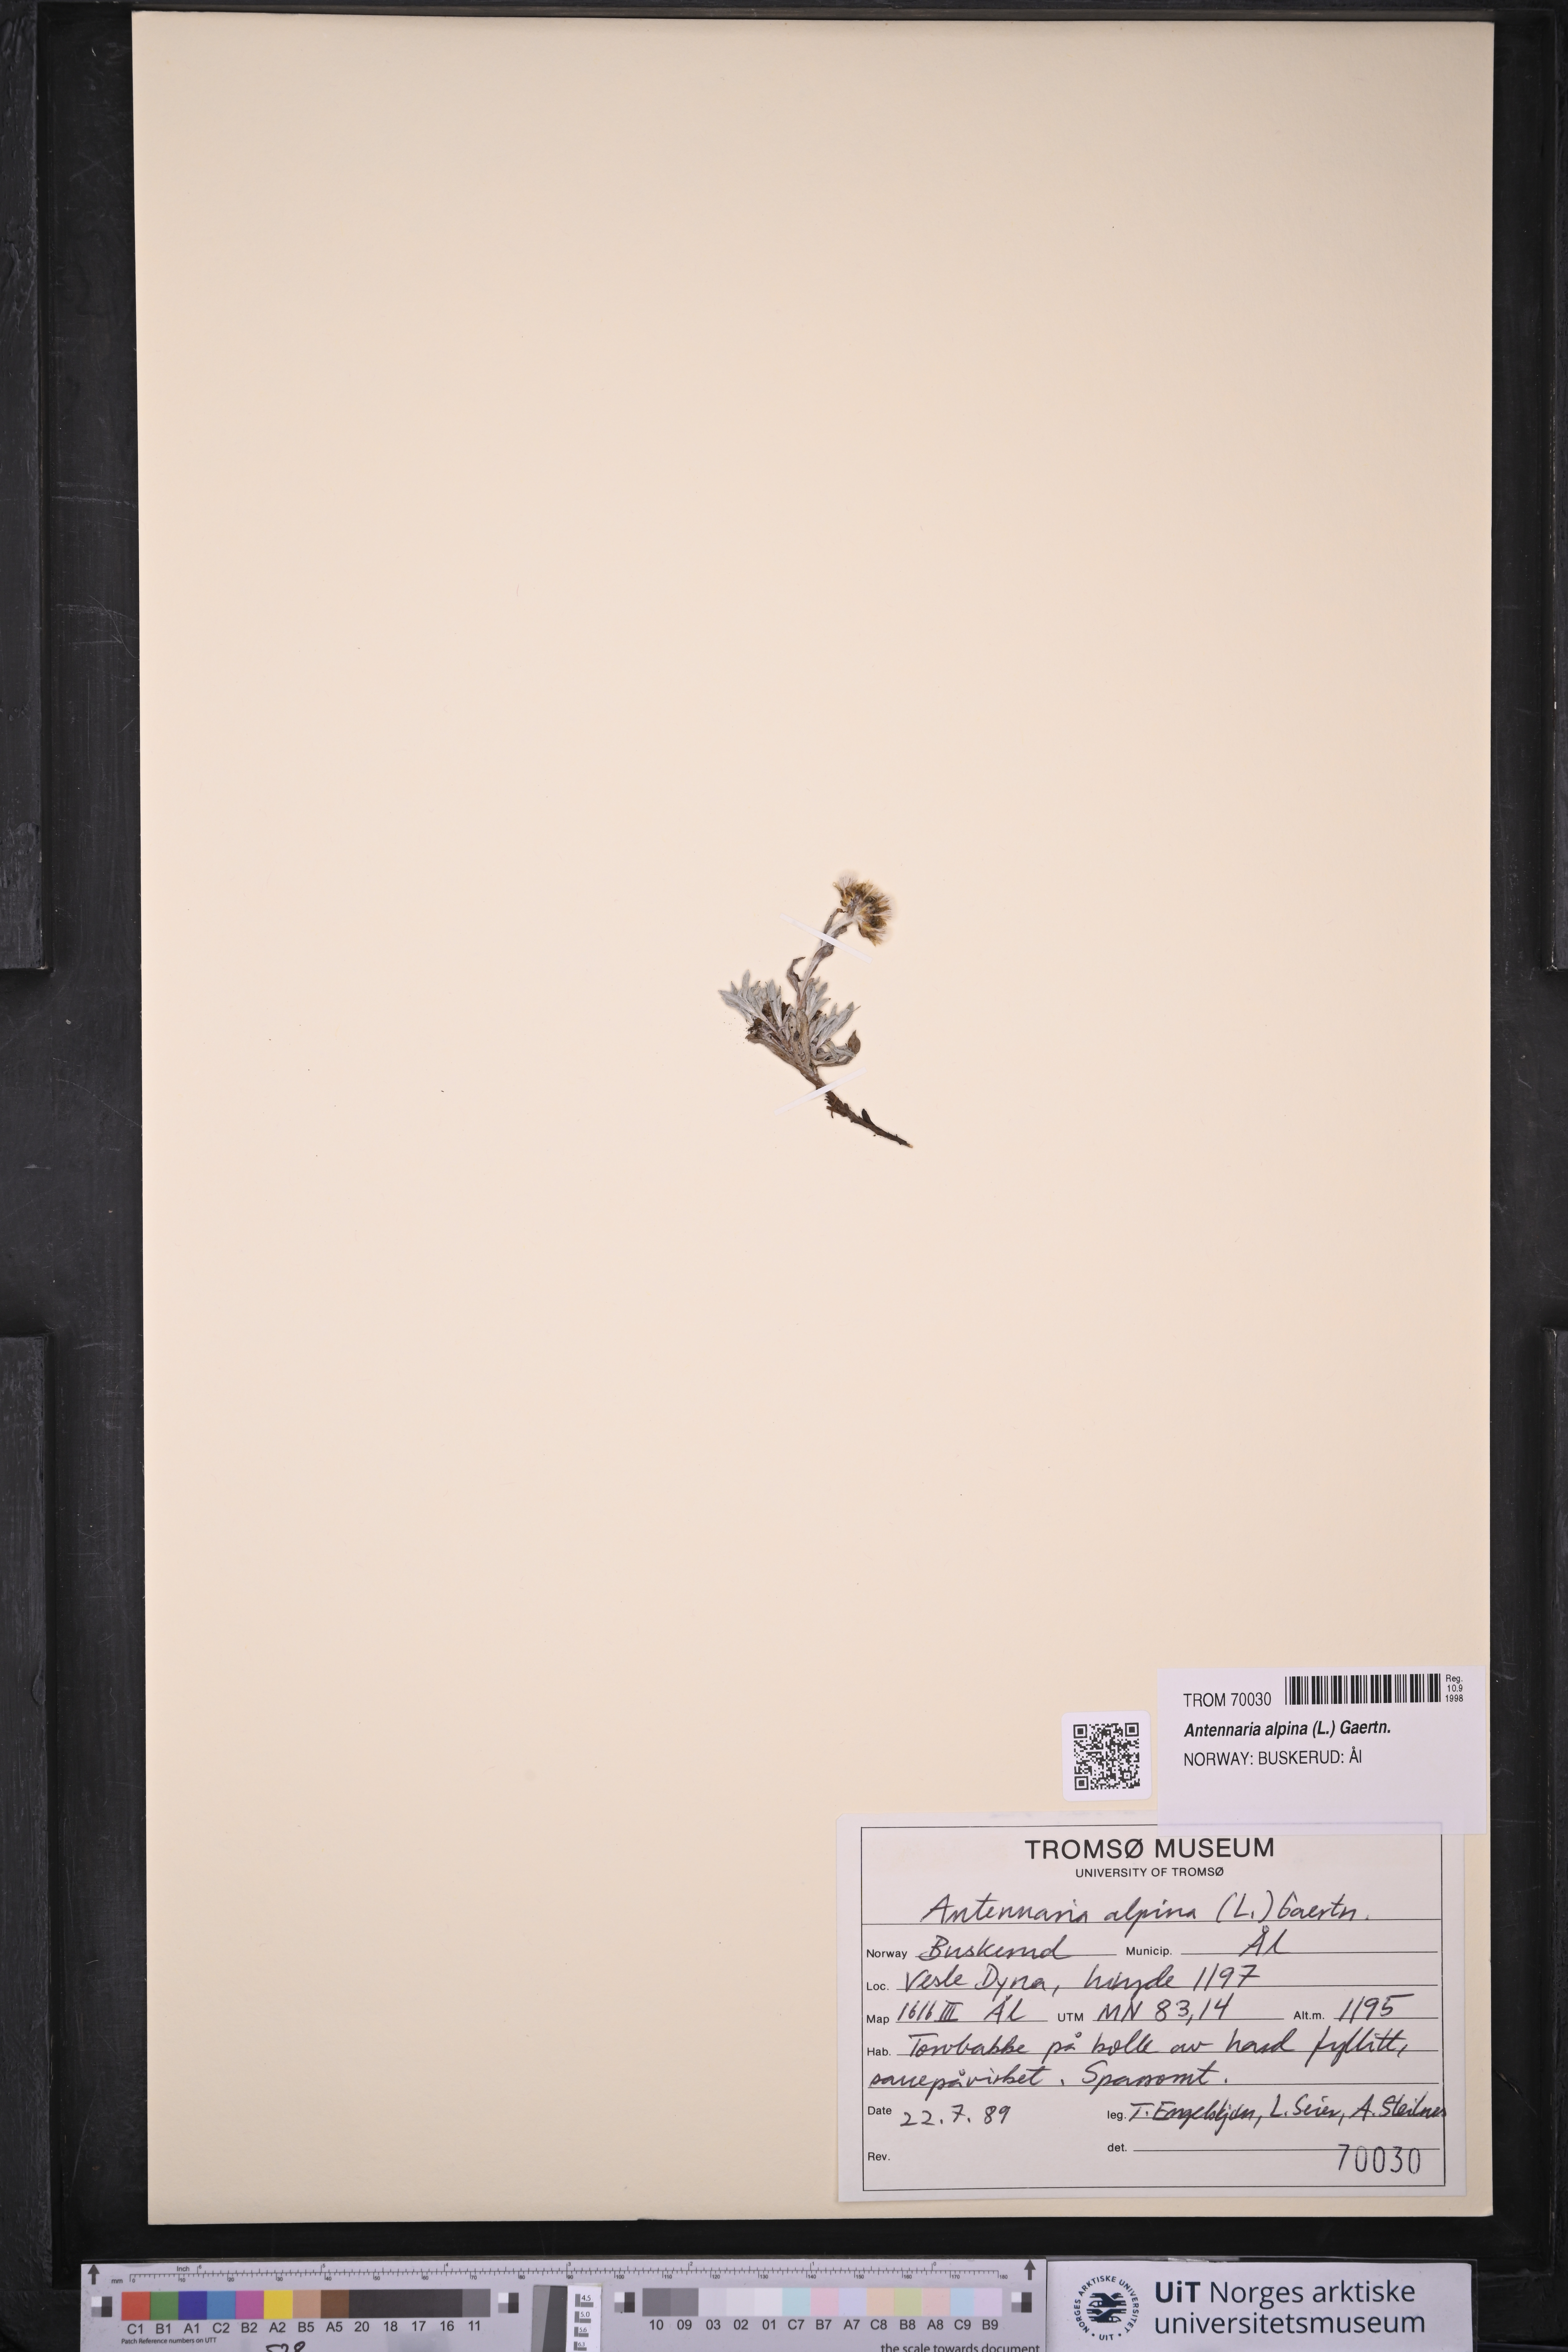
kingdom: Plantae
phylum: Tracheophyta
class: Magnoliopsida
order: Asterales
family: Asteraceae
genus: Antennaria
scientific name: Antennaria alpina
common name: Alpine pussytoes
